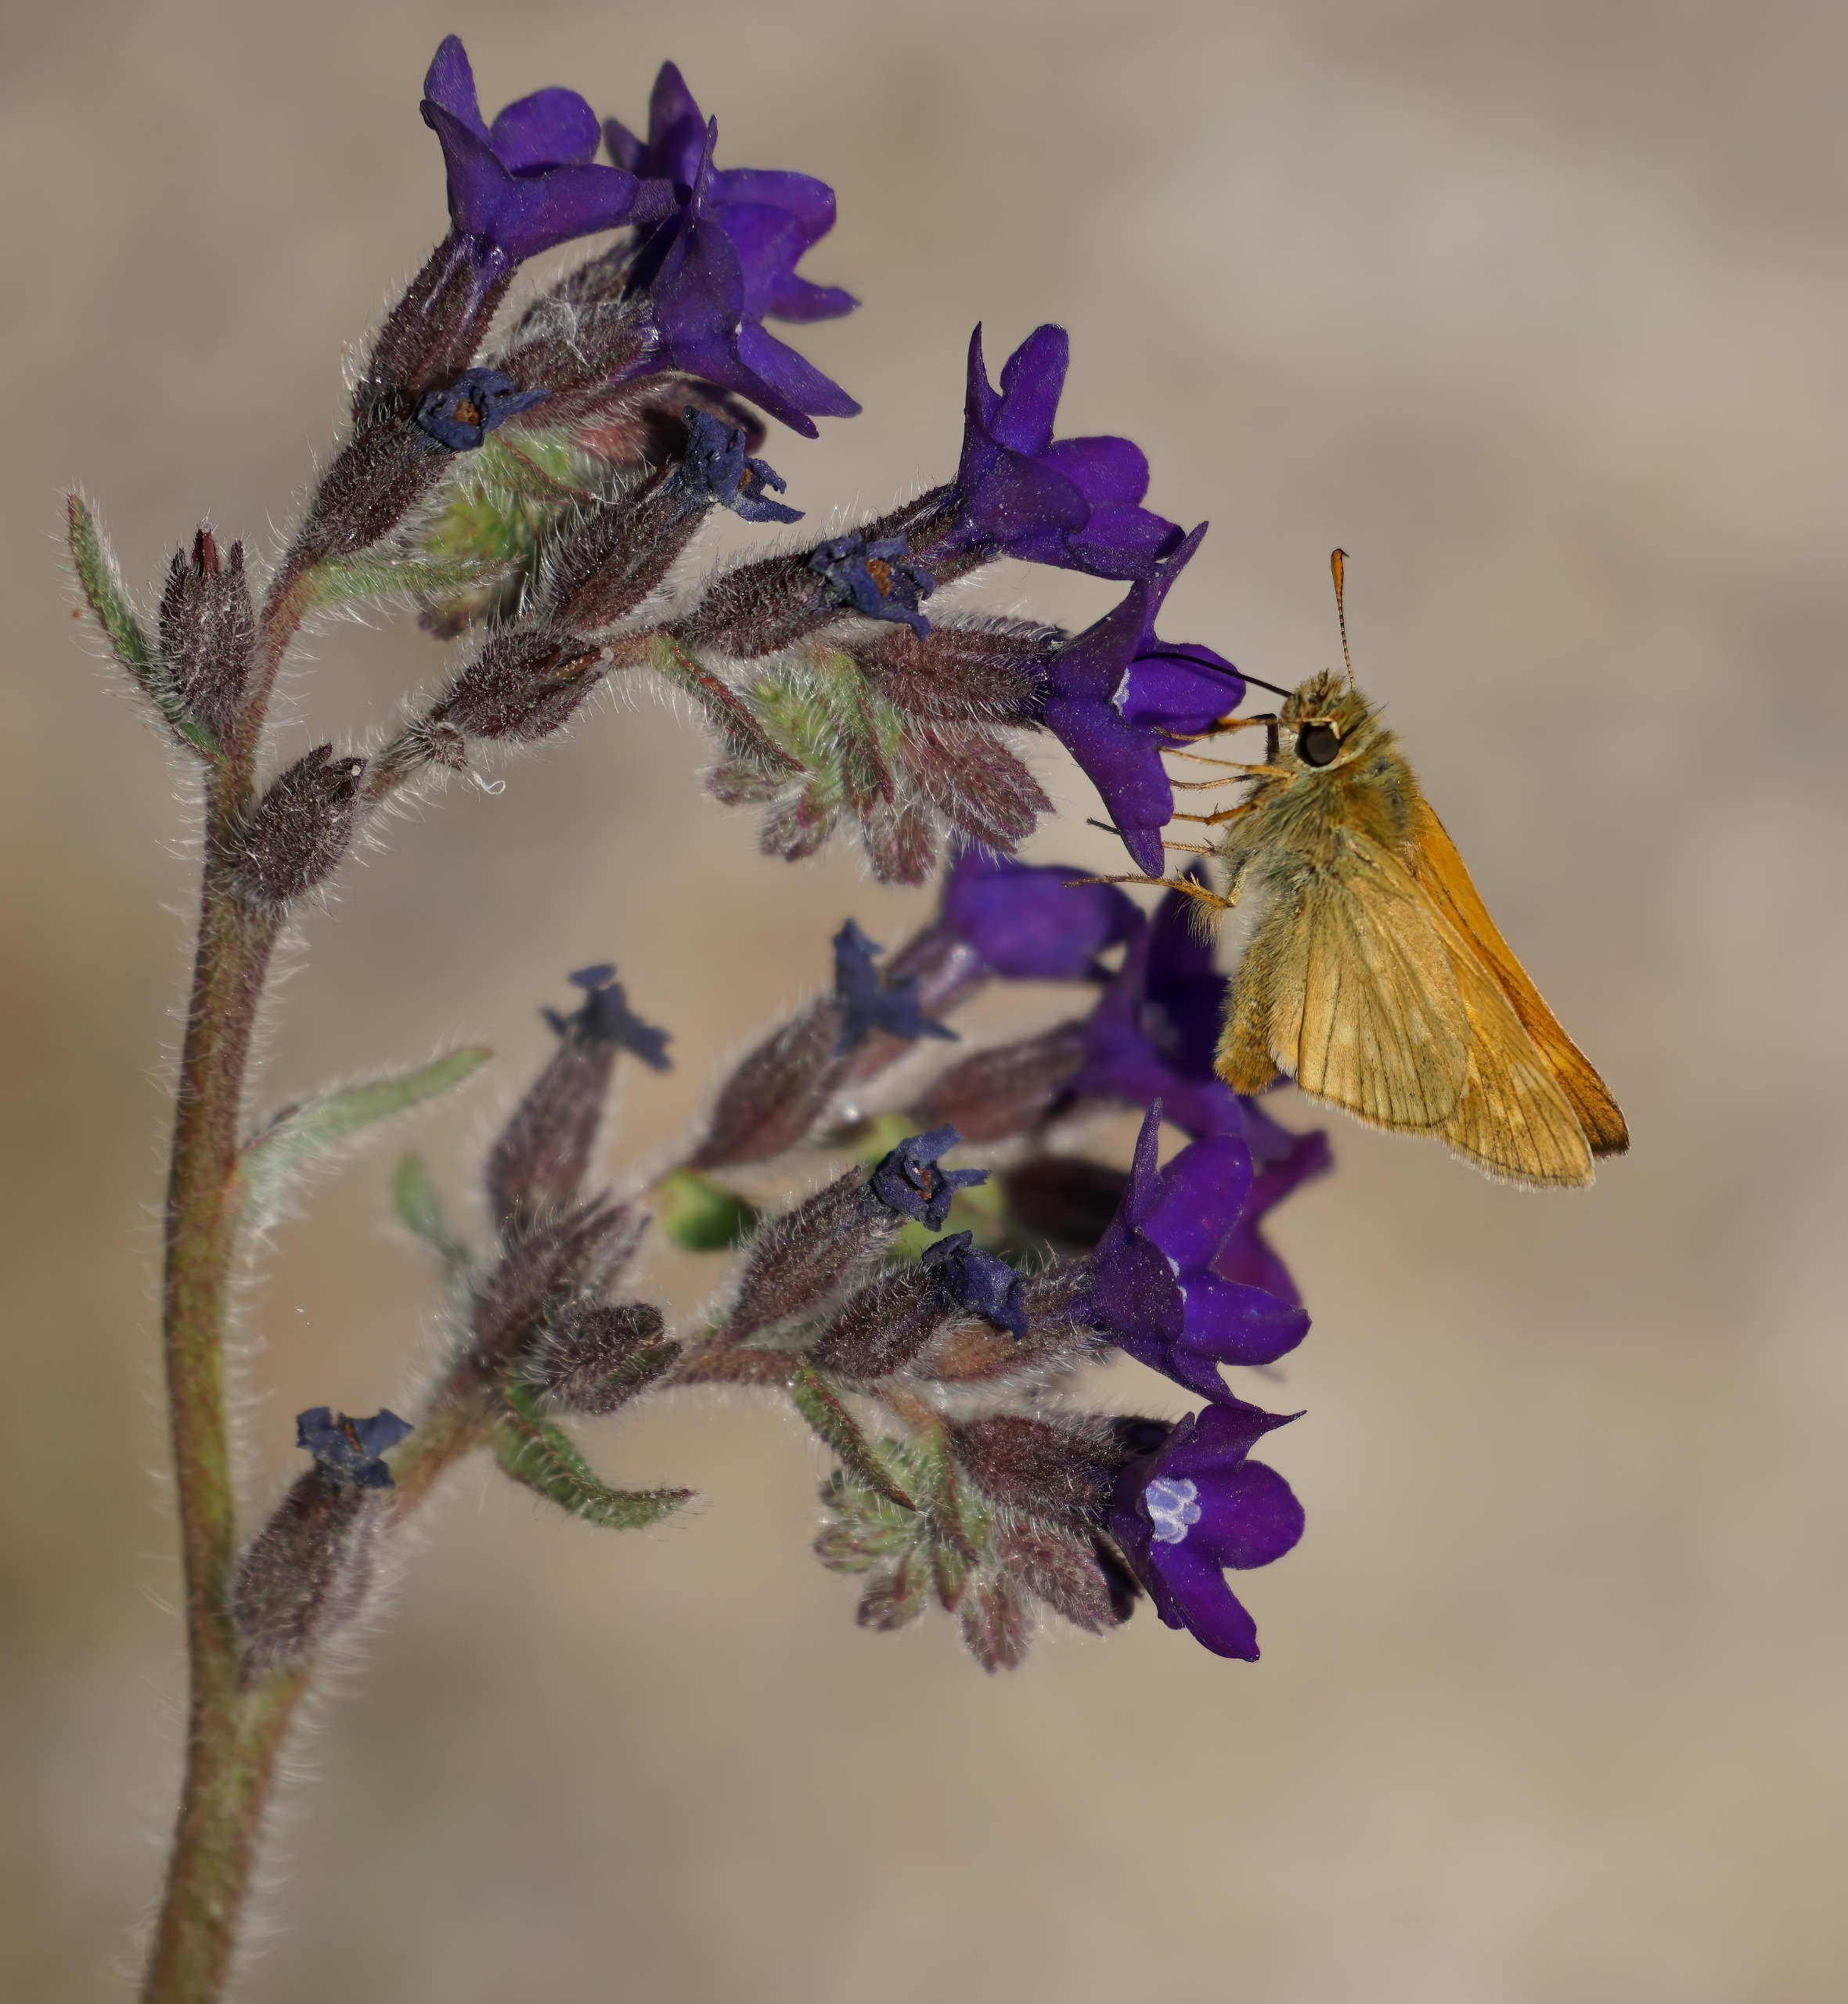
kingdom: Animalia
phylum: Arthropoda
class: Insecta
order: Lepidoptera
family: Hesperiidae
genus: Ochlodes
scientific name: Ochlodes venata
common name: Stor bredpande
